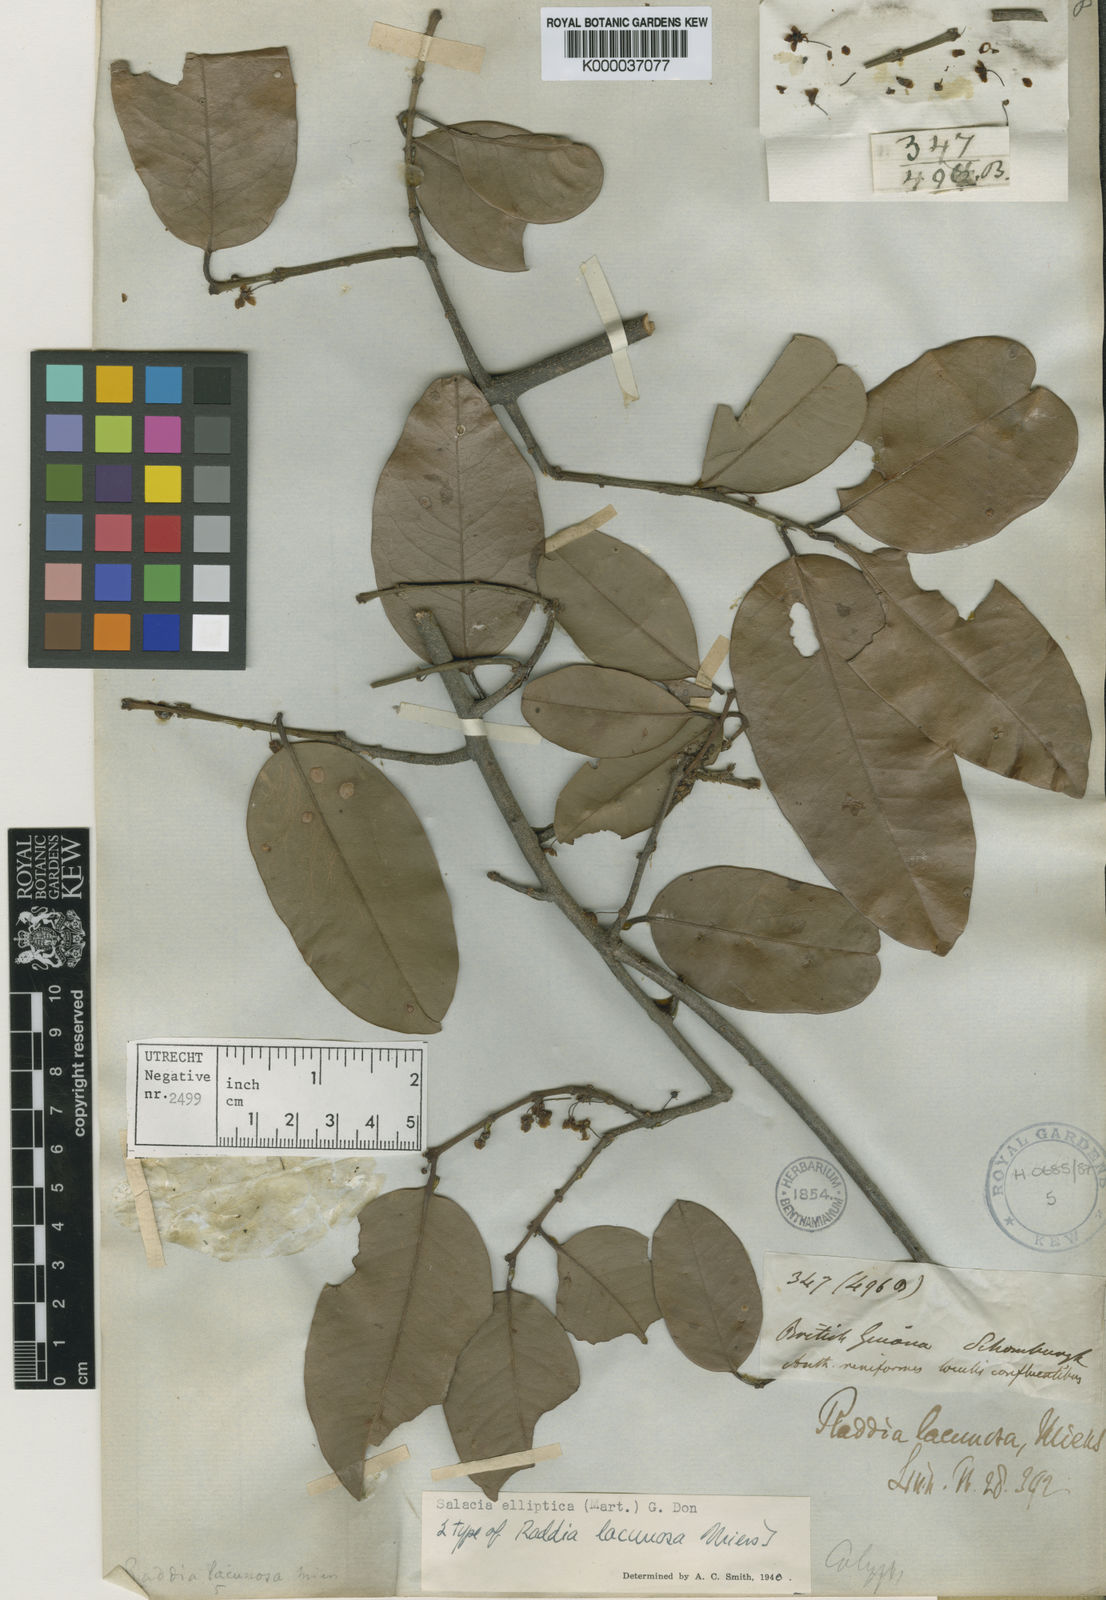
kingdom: Plantae
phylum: Tracheophyta
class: Magnoliopsida
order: Celastrales
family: Celastraceae
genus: Salacia
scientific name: Salacia elliptica
